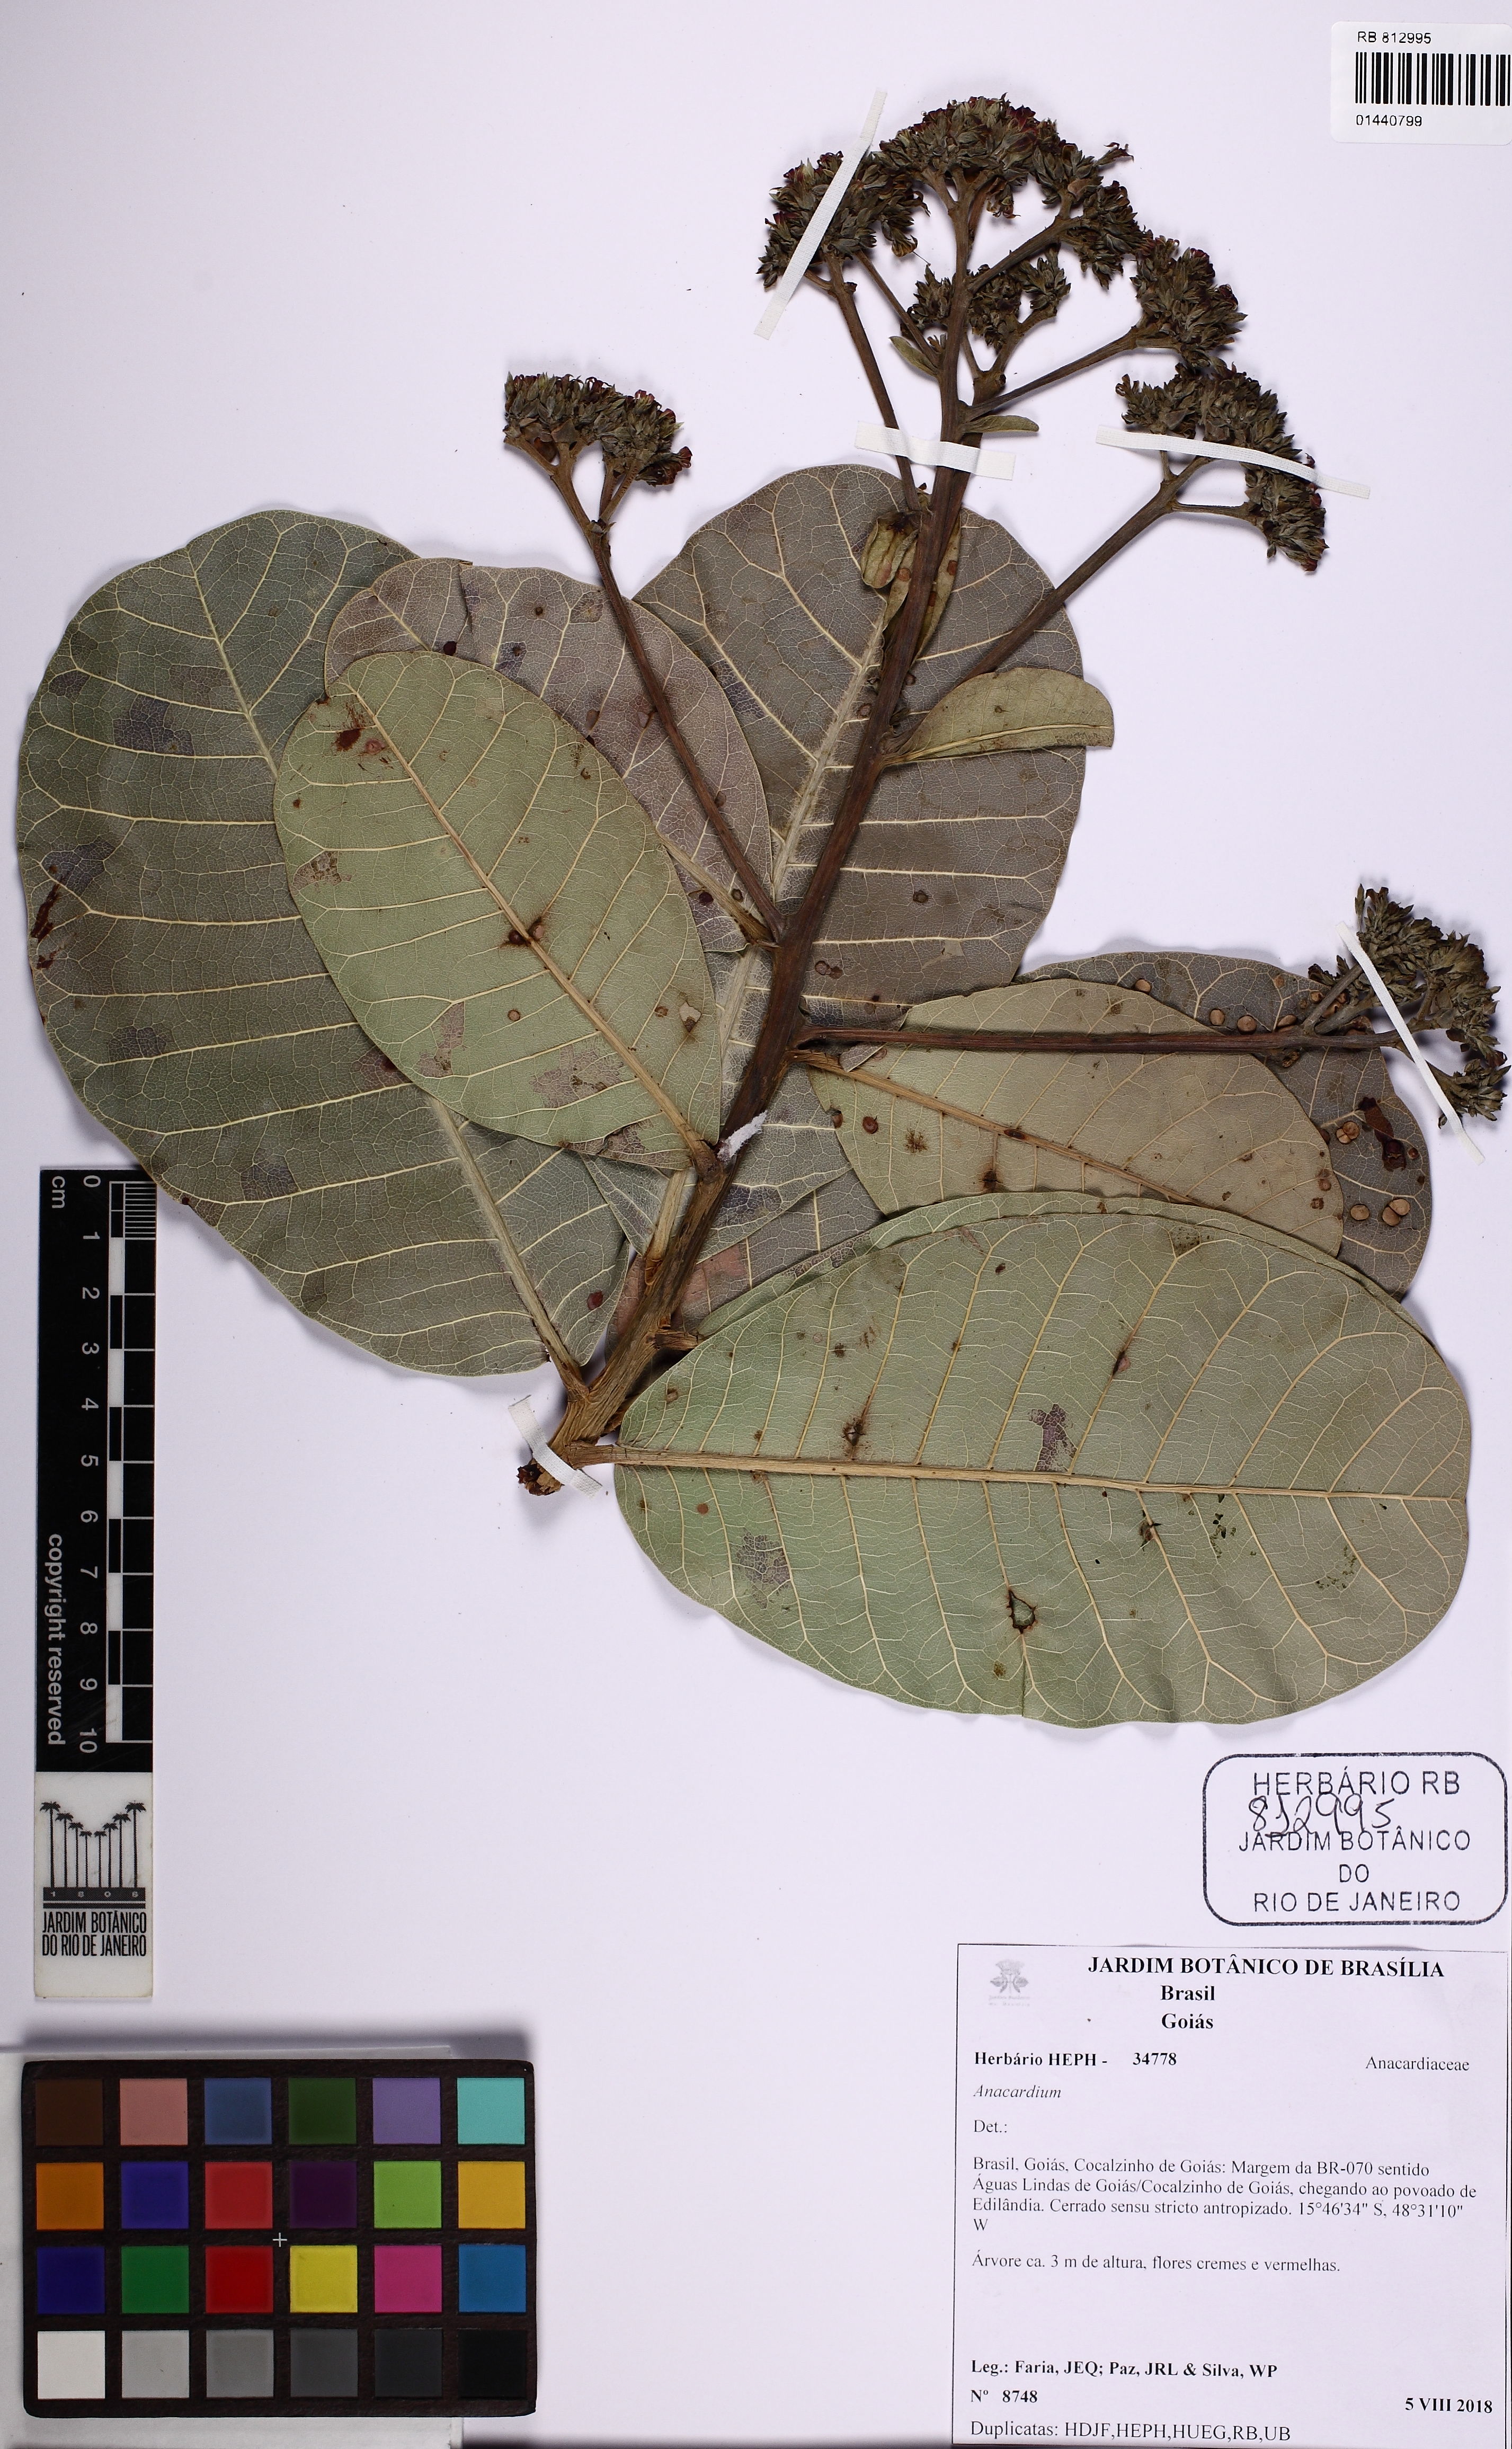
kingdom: Plantae
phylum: Tracheophyta
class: Magnoliopsida
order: Sapindales
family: Anacardiaceae
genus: Anacardium
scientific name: Anacardium occidentale
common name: Cashew
